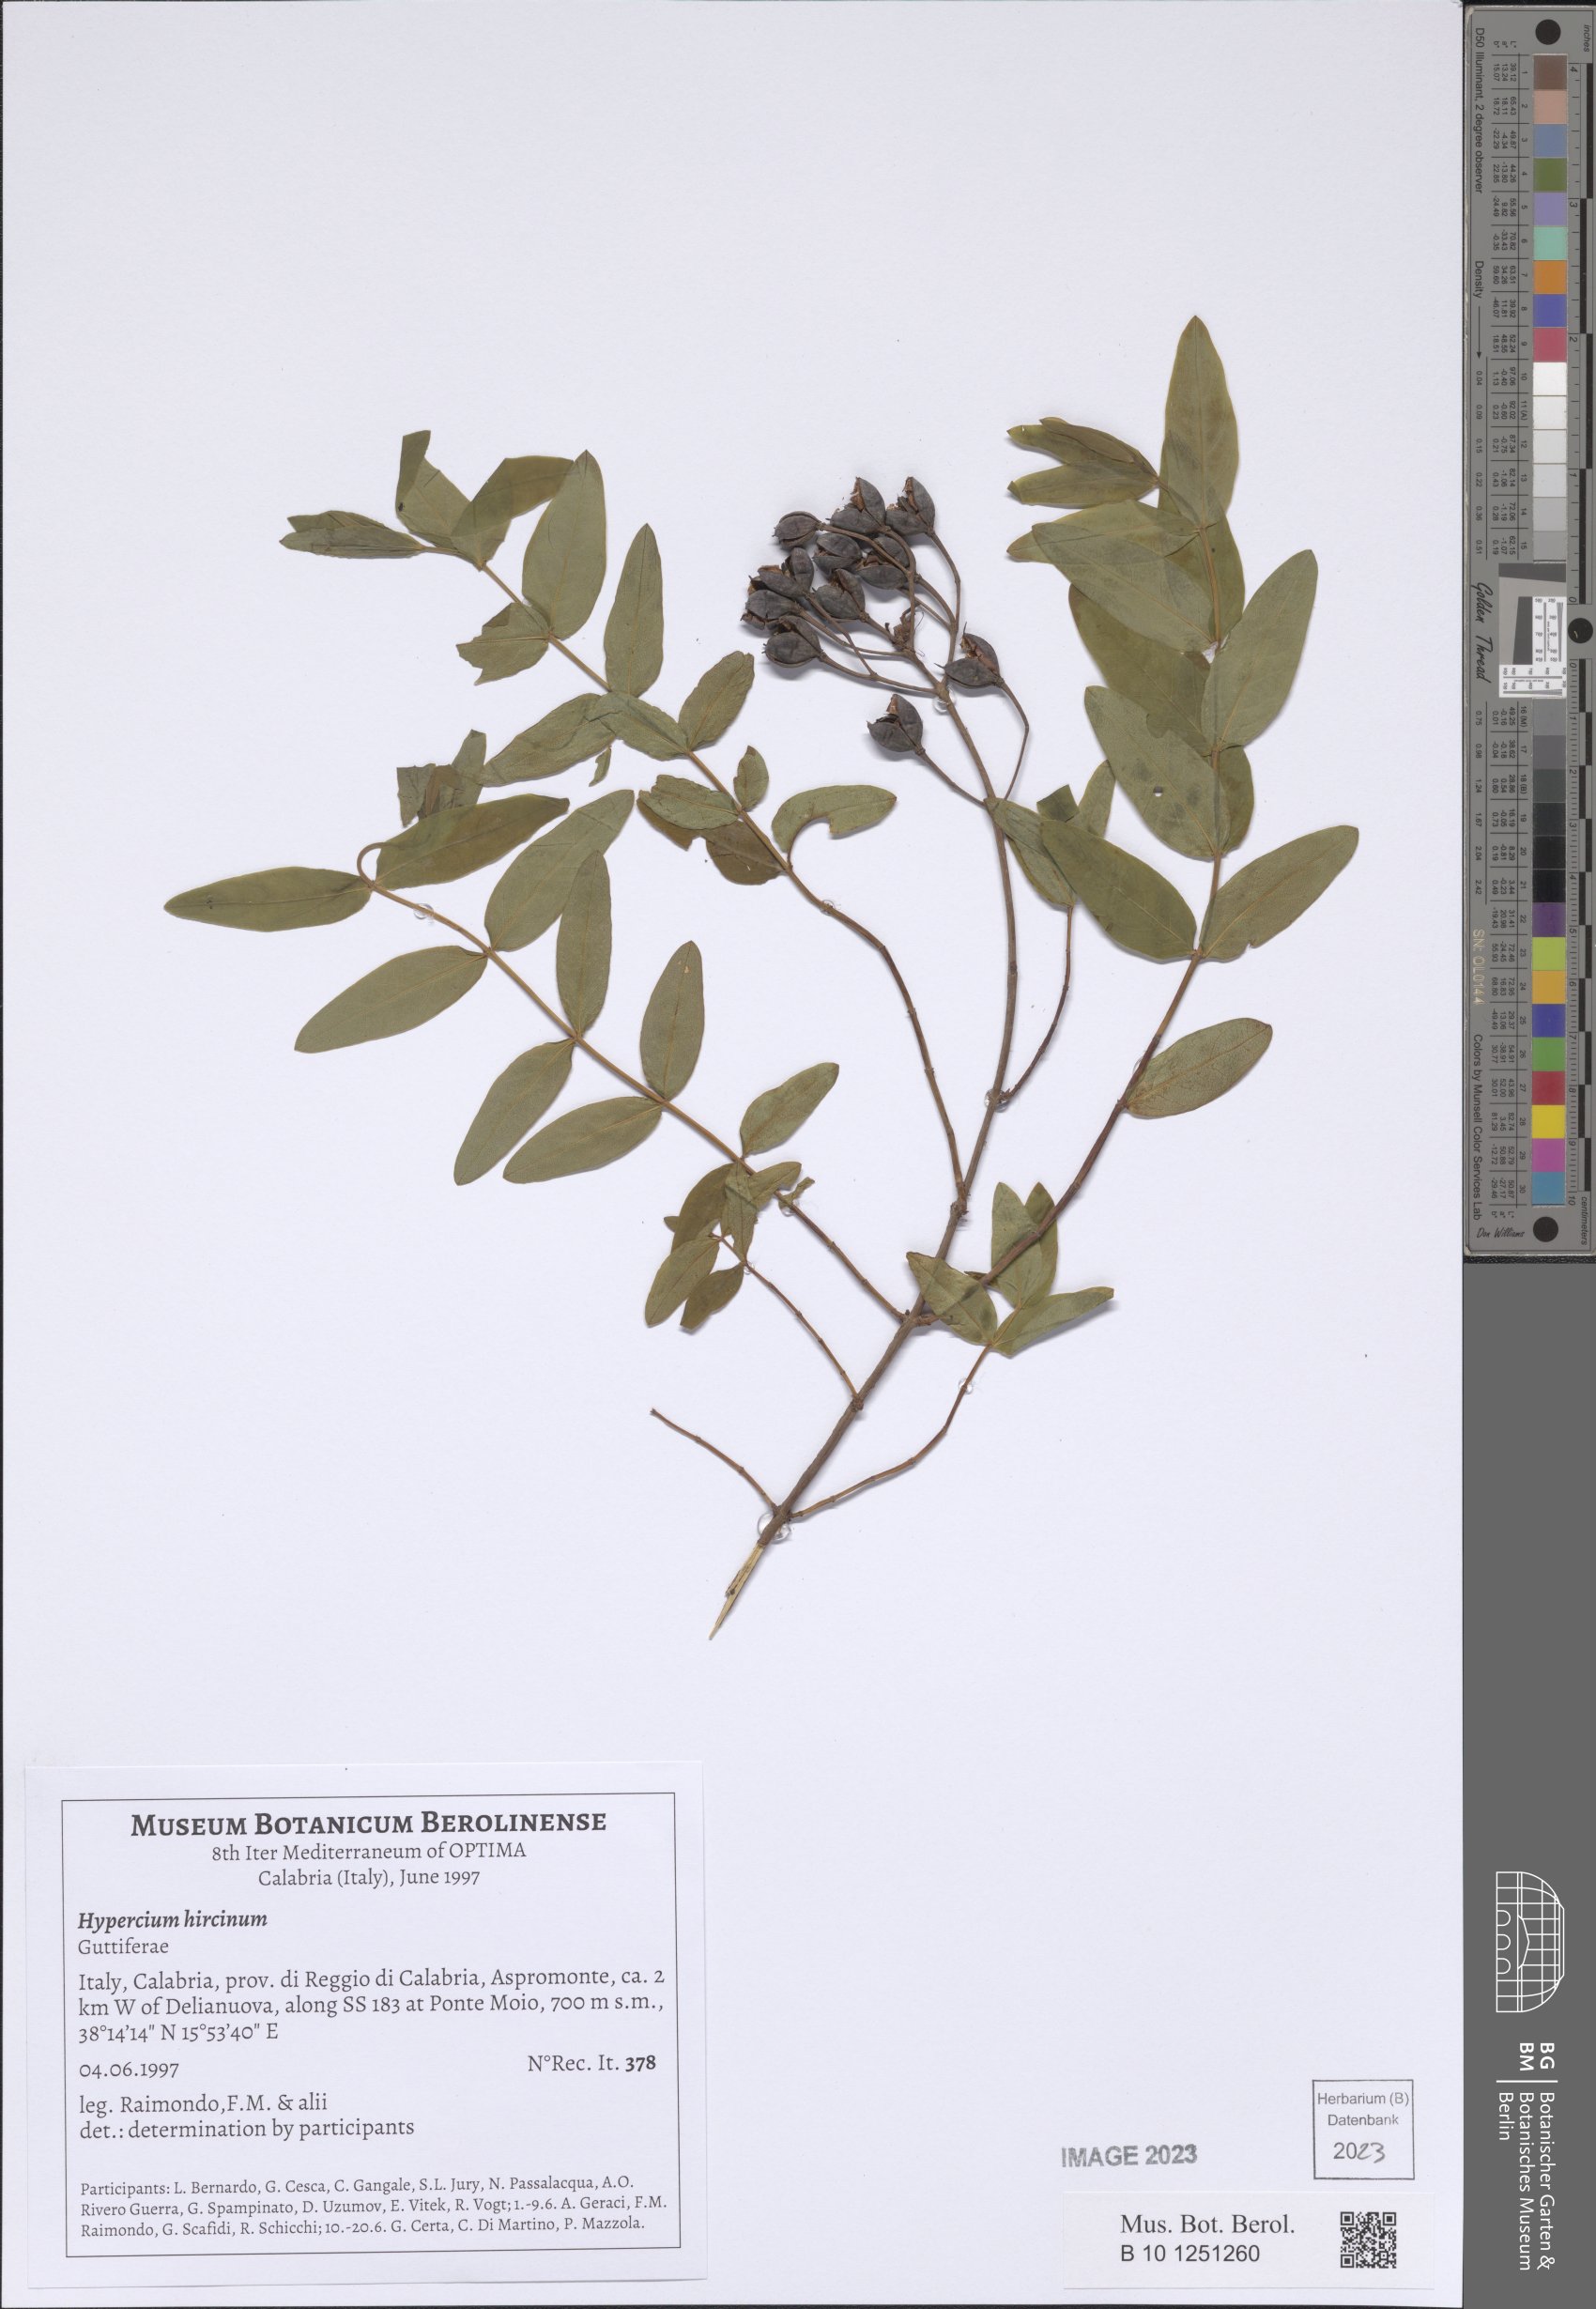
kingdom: Plantae
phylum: Tracheophyta
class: Magnoliopsida
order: Malpighiales
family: Hypericaceae
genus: Hypericum
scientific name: Hypericum hircinum
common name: Stinking tutsan
